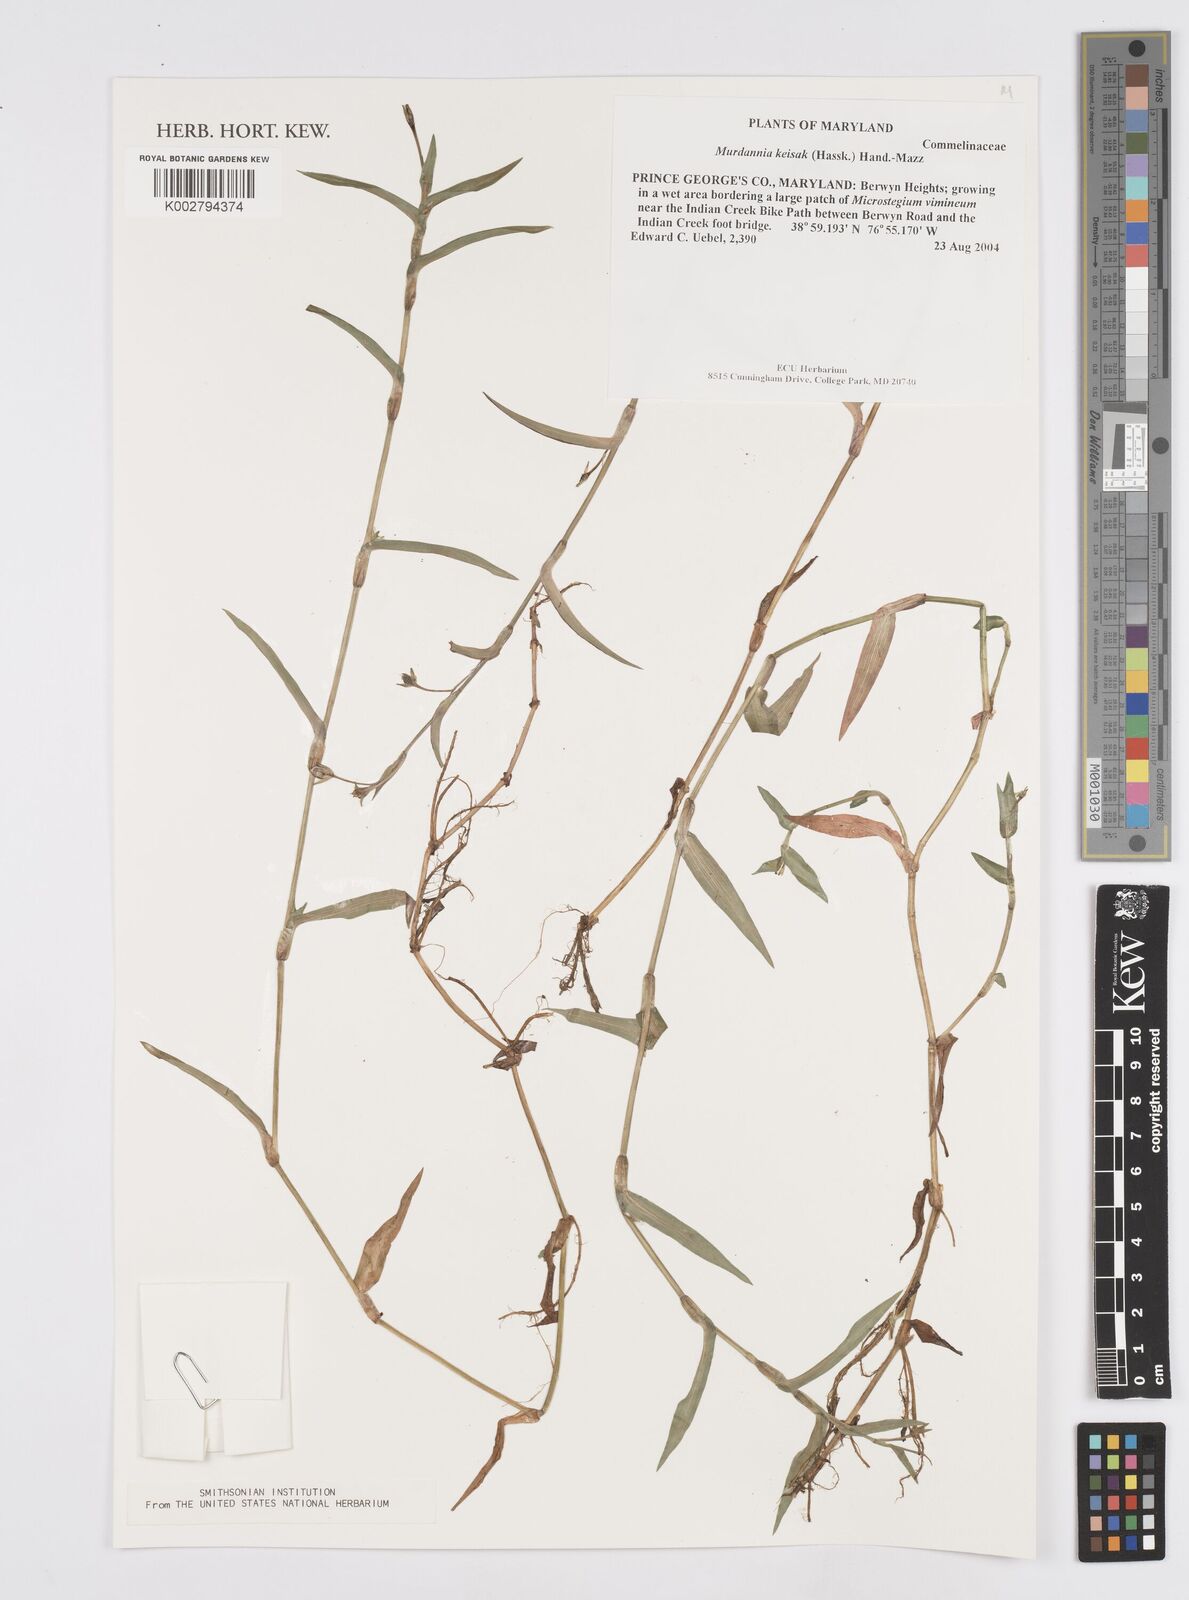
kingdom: Plantae
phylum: Tracheophyta
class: Liliopsida
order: Commelinales
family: Commelinaceae
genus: Murdannia
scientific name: Murdannia keisak
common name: Wartremoving herb
